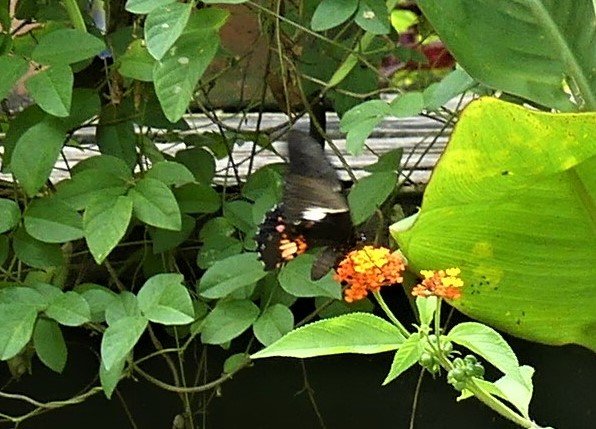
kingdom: Animalia
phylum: Arthropoda
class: Insecta
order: Lepidoptera
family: Papilionidae
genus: Papilio
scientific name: Papilio anchisiades
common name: Ruby-spotted Swallowtail
